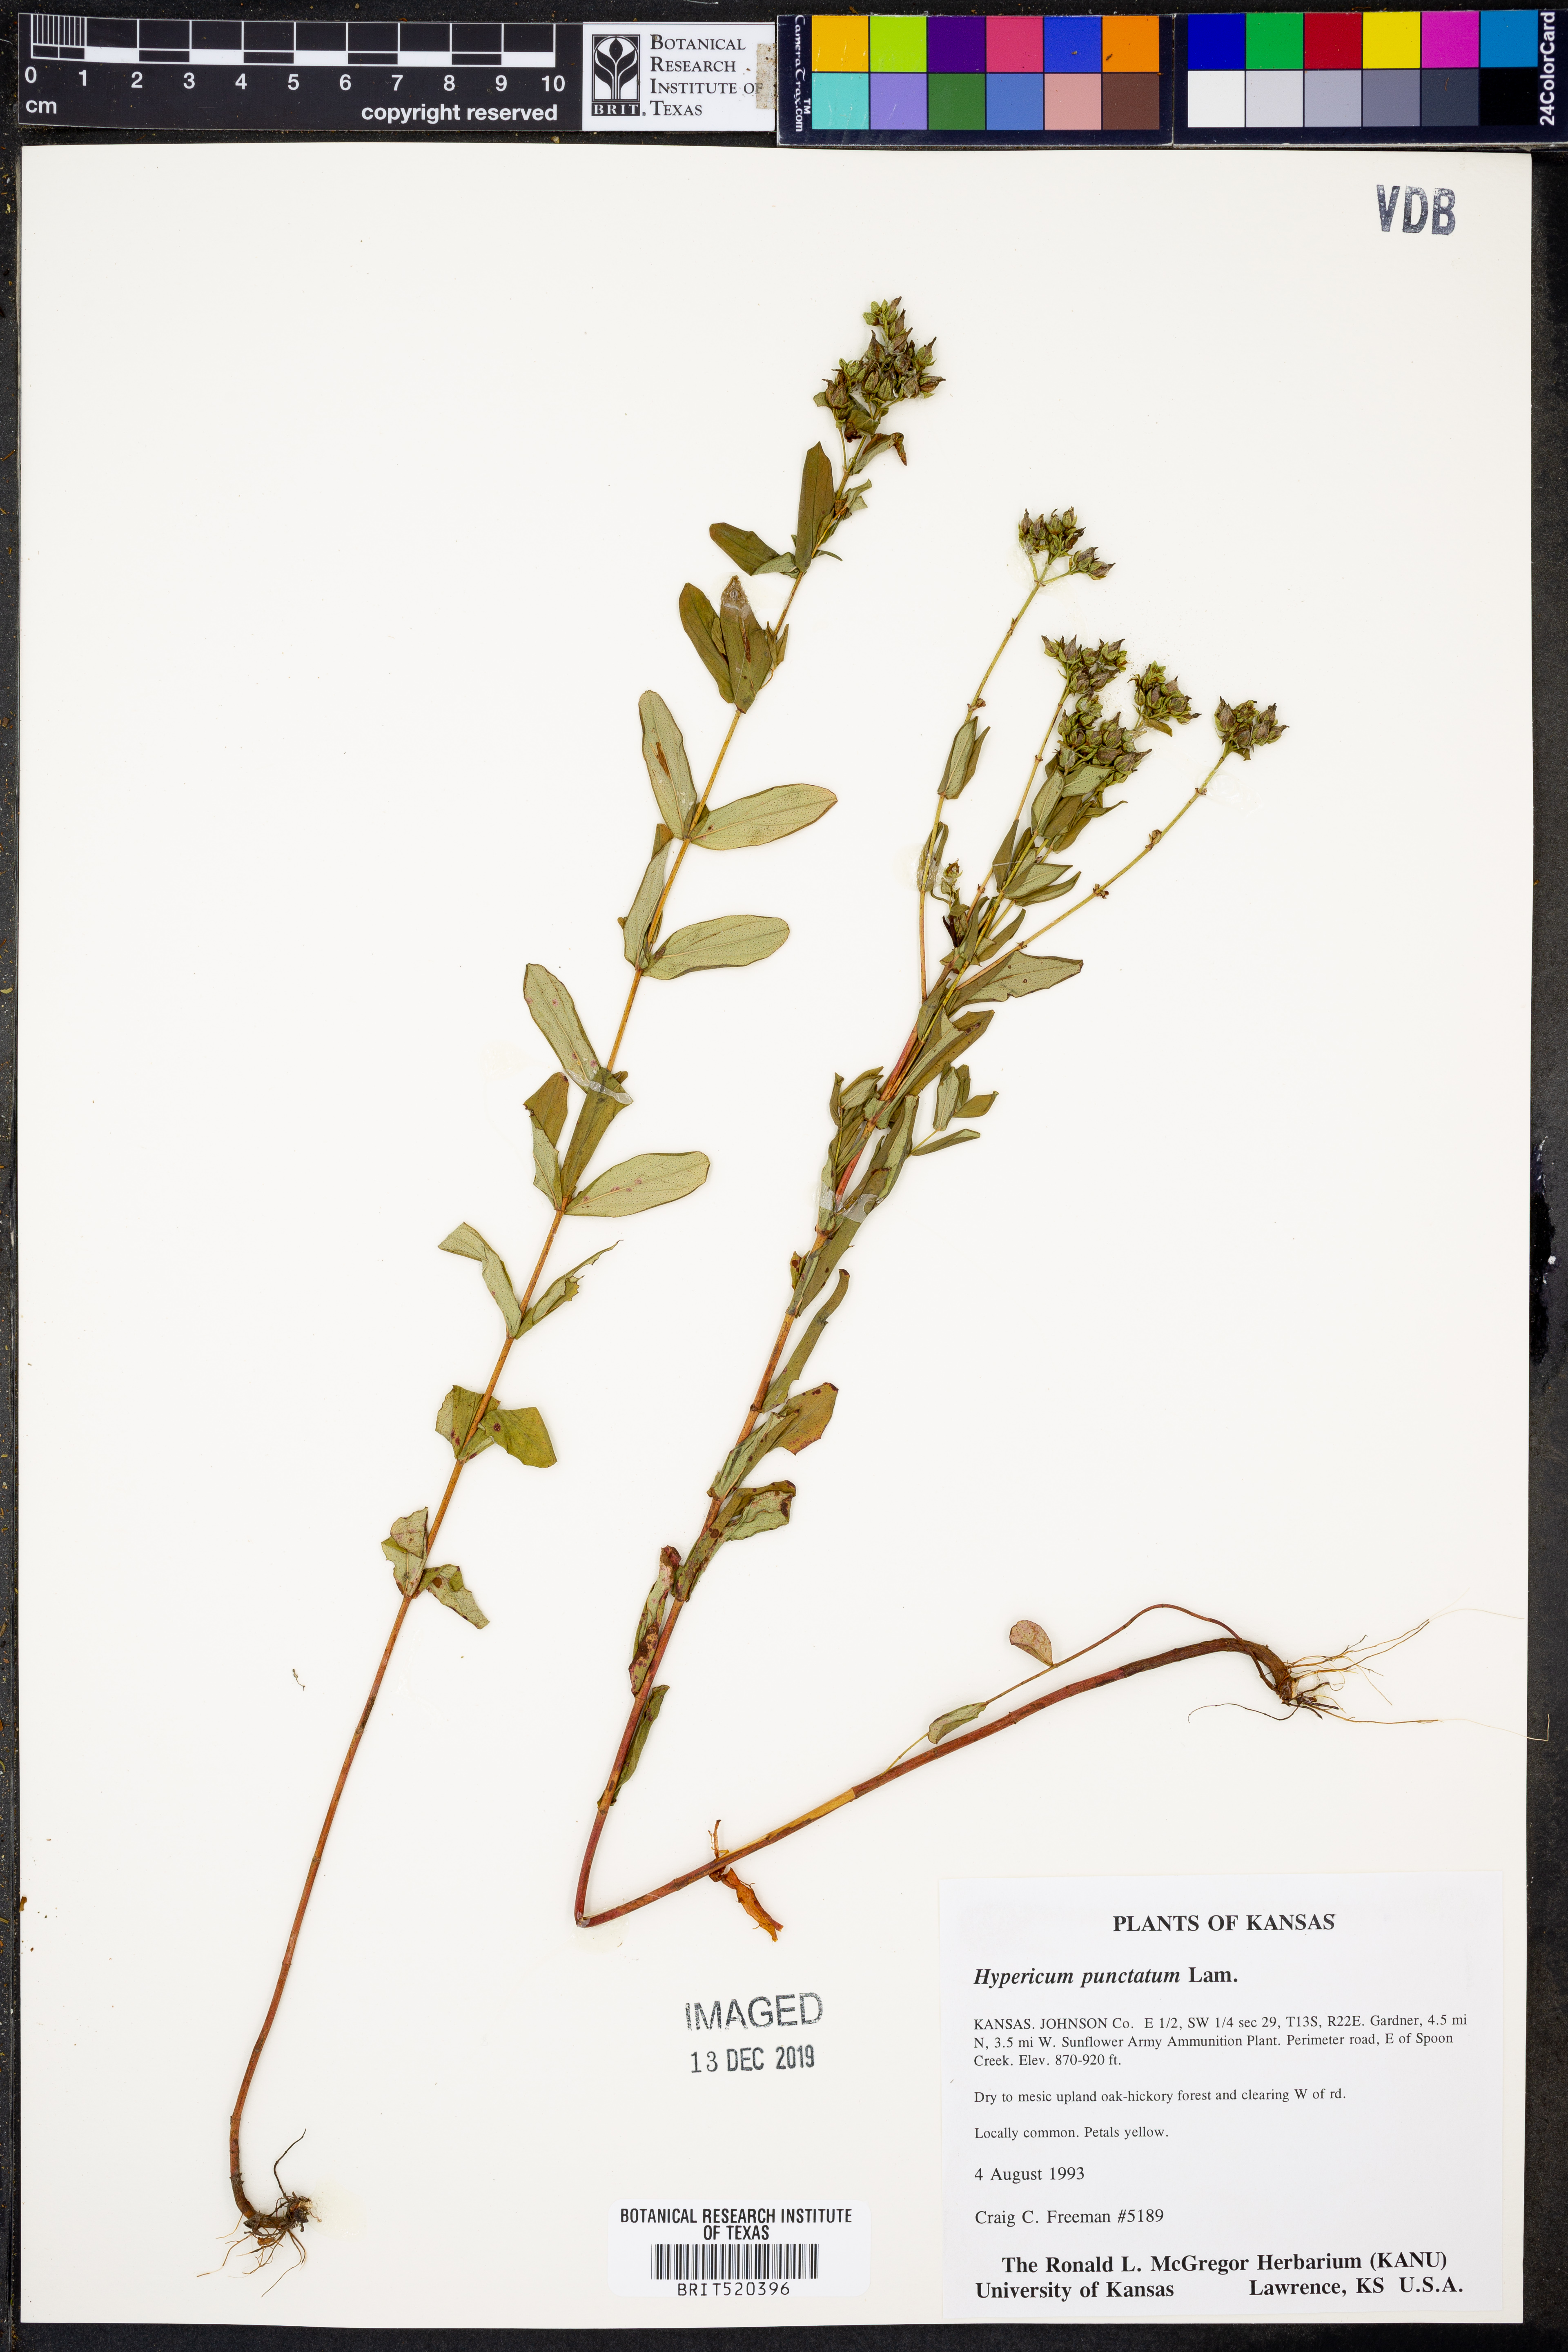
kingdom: Plantae
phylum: Tracheophyta
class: Magnoliopsida
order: Malpighiales
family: Hypericaceae
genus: Hypericum
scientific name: Hypericum punctatum
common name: Spotted st. john's-wort
